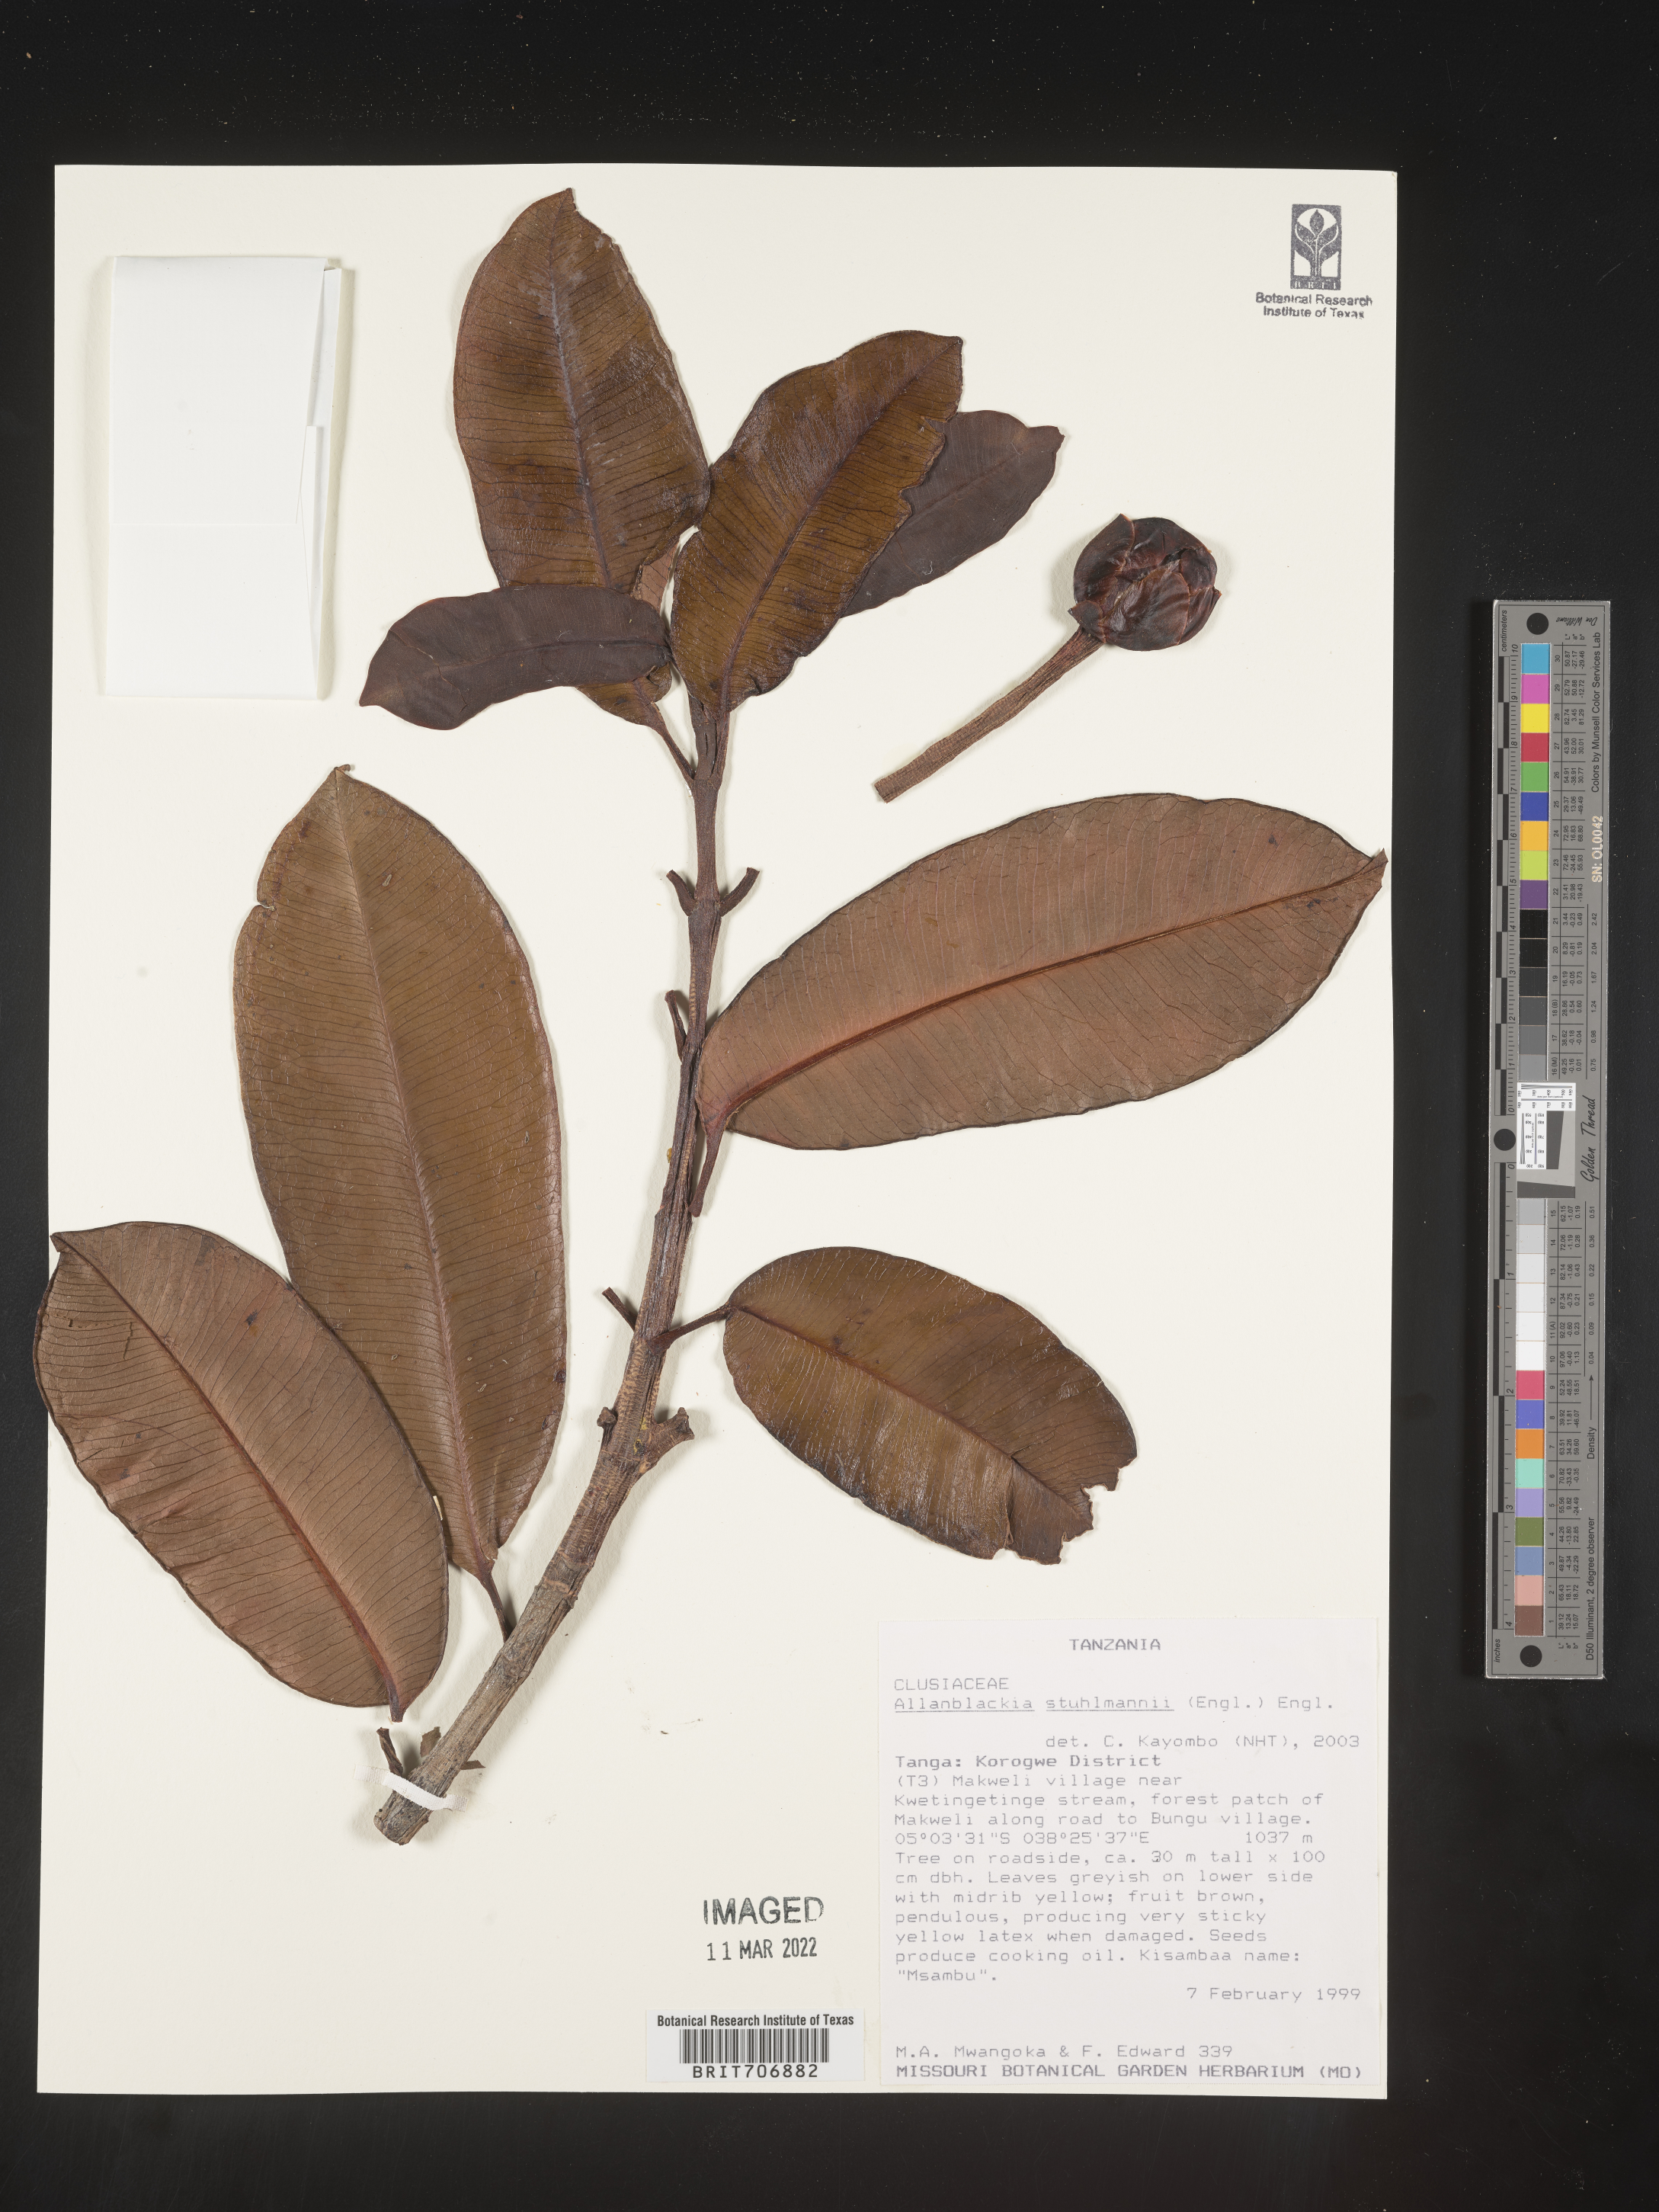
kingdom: Plantae
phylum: Tracheophyta
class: Magnoliopsida
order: Malpighiales
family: Clusiaceae
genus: Allanblackia
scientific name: Allanblackia
